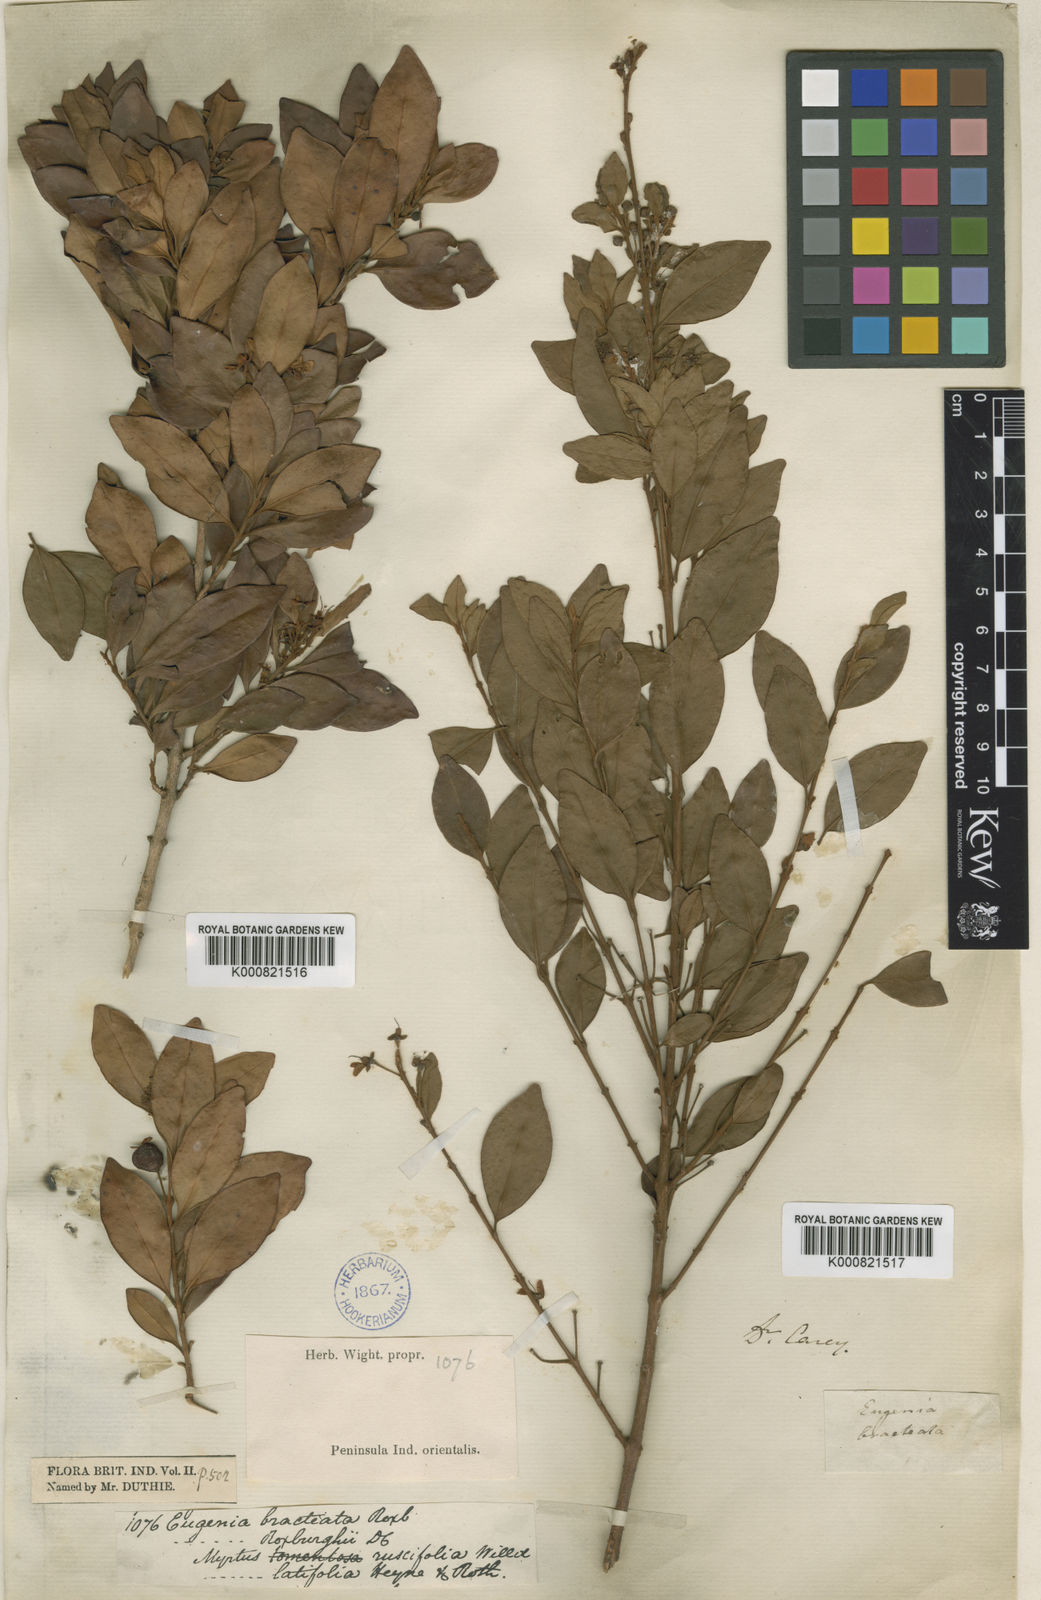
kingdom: Plantae
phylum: Tracheophyta
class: Magnoliopsida
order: Myrtales
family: Myrtaceae
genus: Eugenia
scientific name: Eugenia
